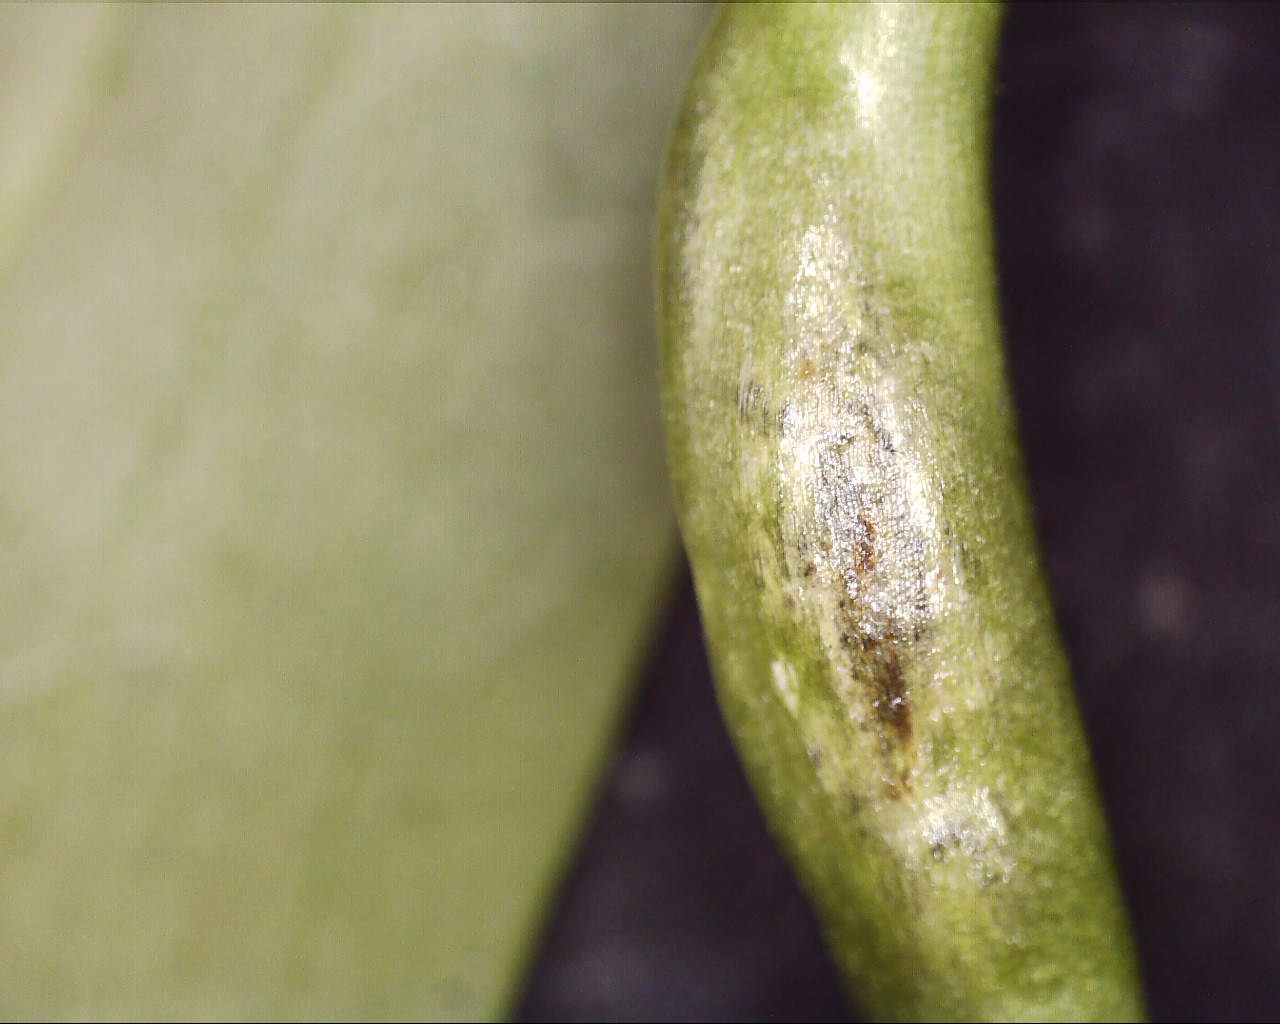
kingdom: Fungi
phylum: Basidiomycota
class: Ustilaginomycetes
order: Urocystidales
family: Urocystidaceae
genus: Urocystis
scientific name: Urocystis eranthidis
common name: erantis-brand
